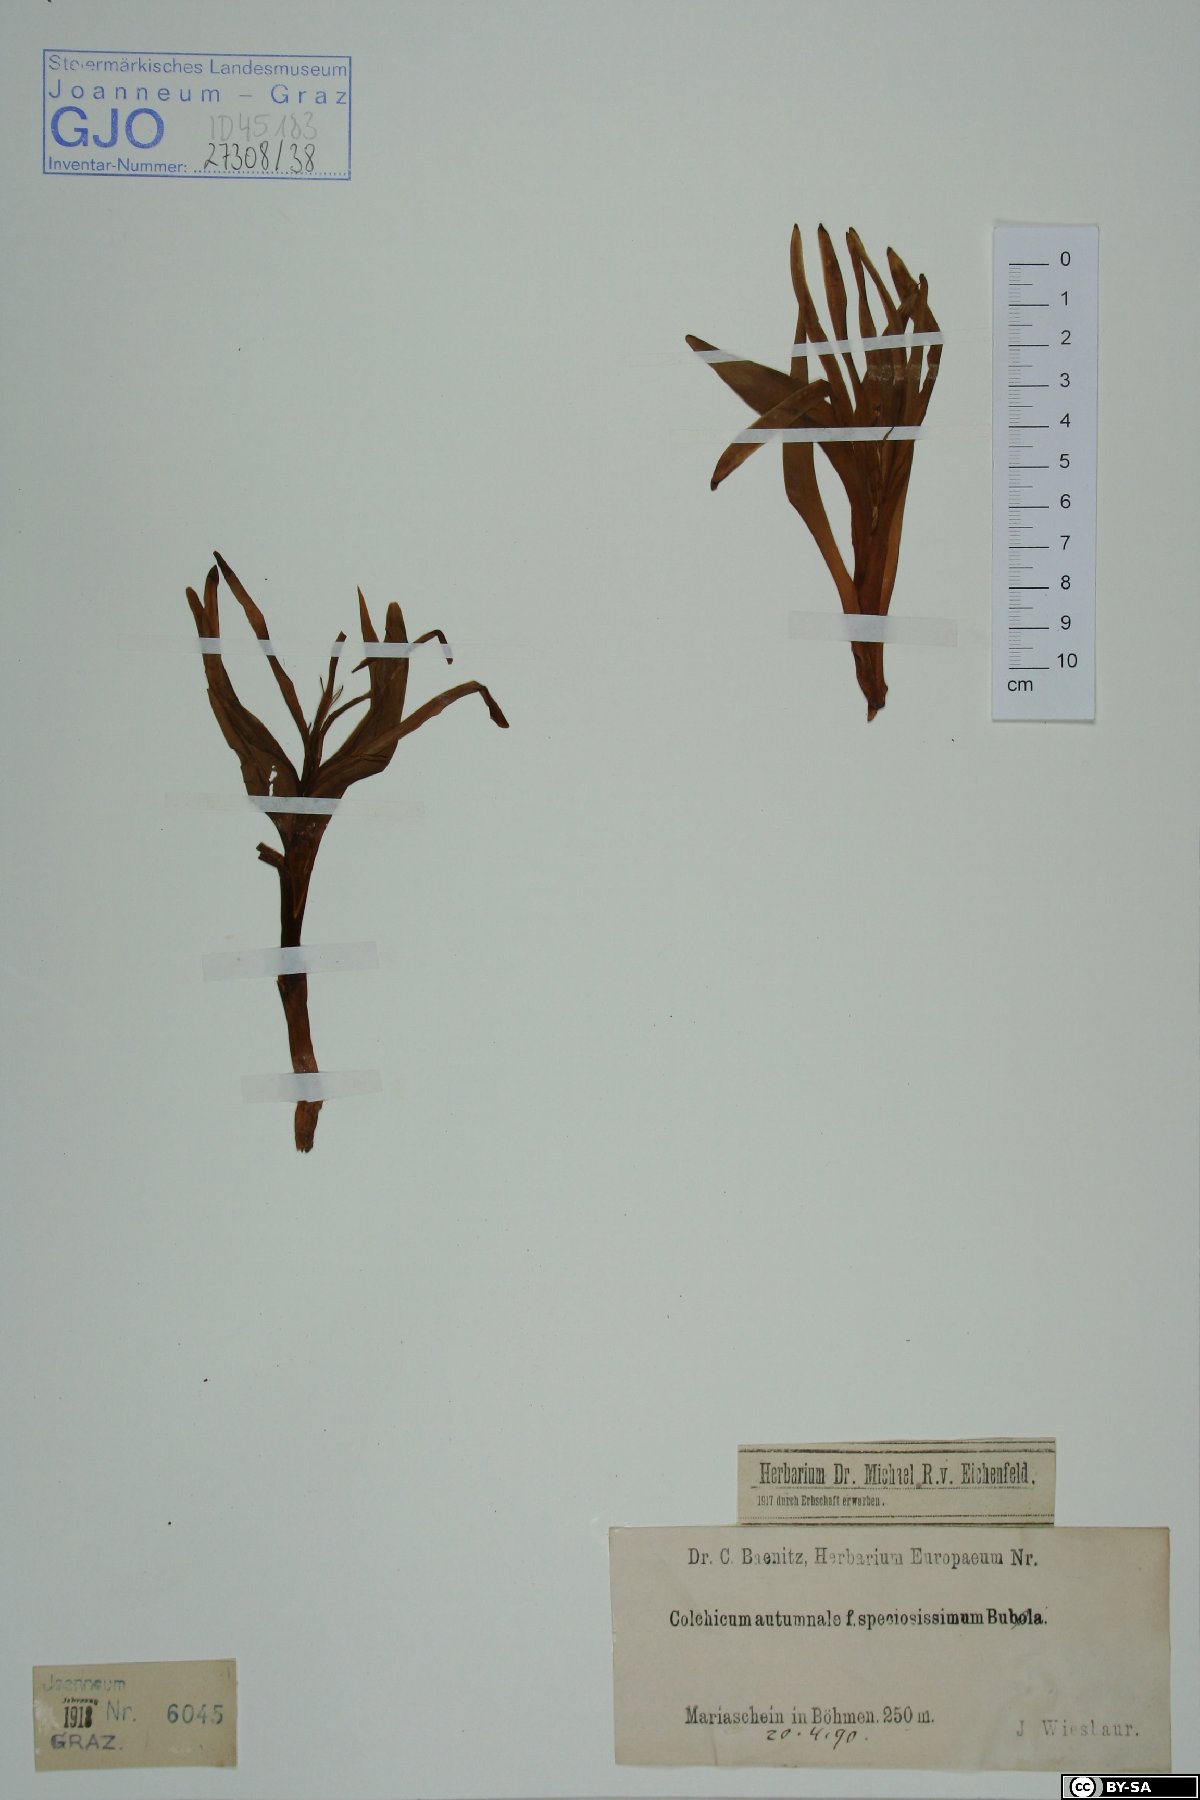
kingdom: Plantae
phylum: Tracheophyta
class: Liliopsida
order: Liliales
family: Colchicaceae
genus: Colchicum
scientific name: Colchicum autumnale
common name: Autumn crocus
